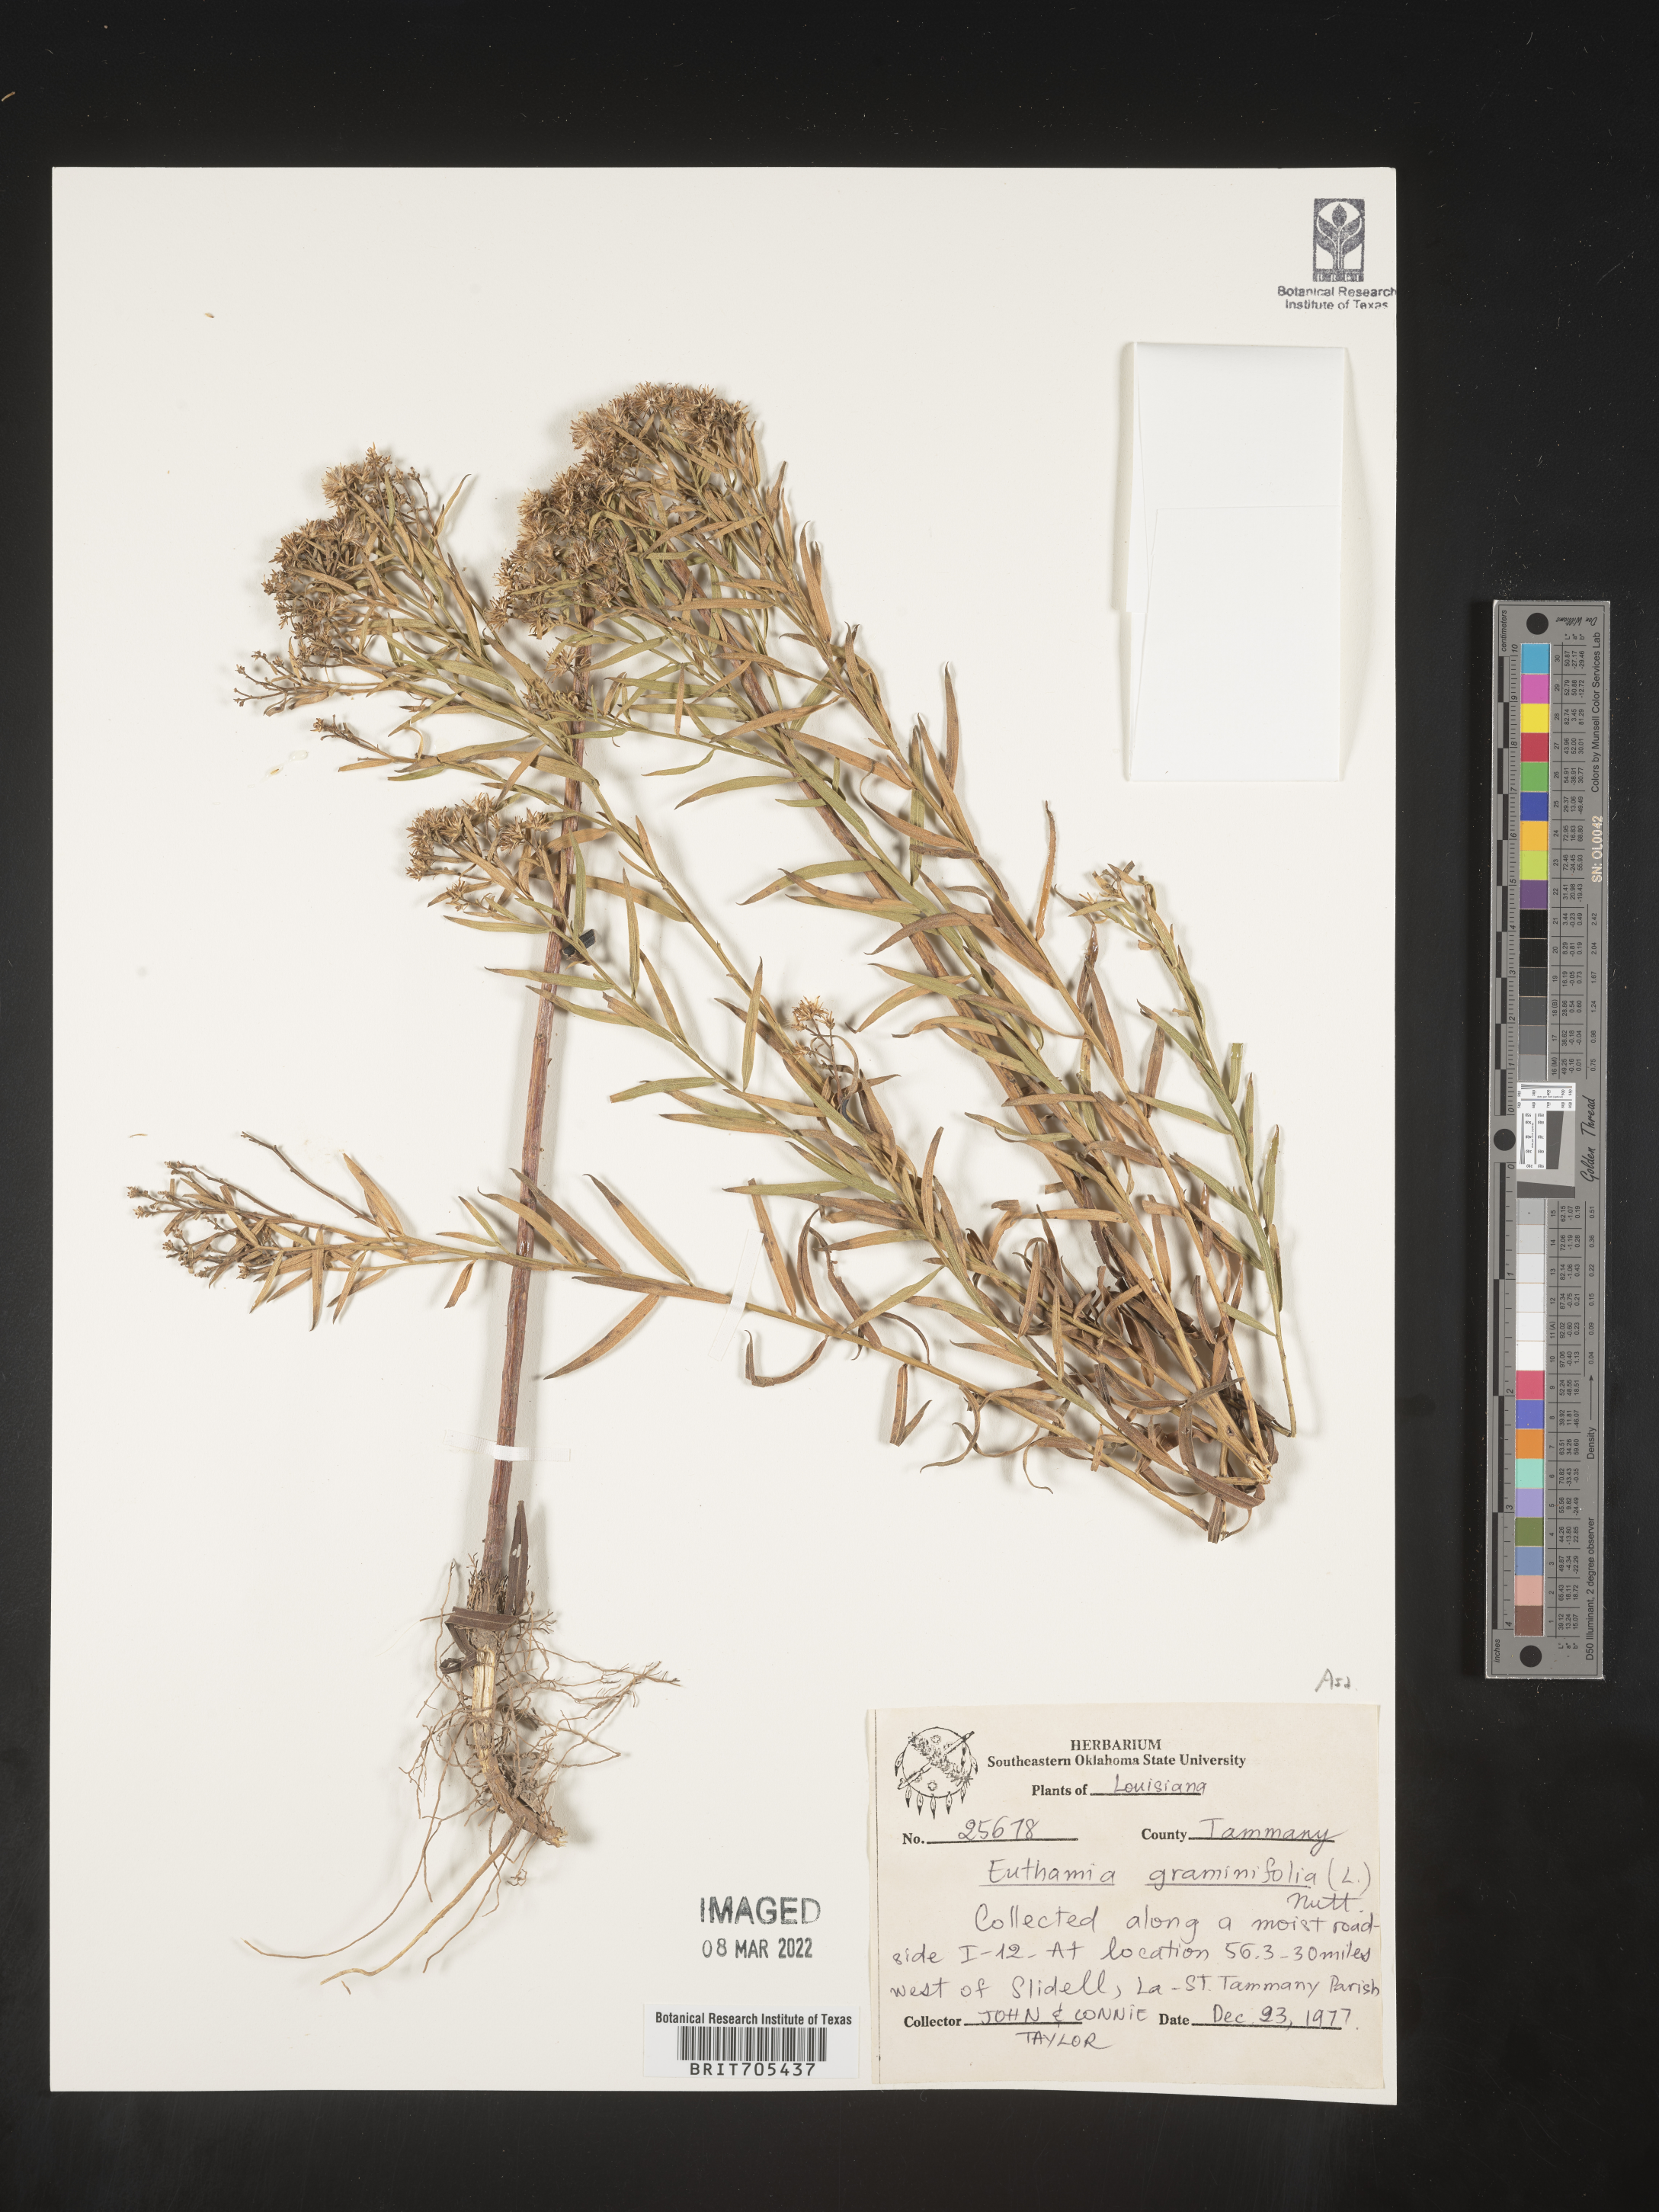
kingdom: Plantae
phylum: Tracheophyta
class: Magnoliopsida
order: Asterales
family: Asteraceae
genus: Euthamia
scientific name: Euthamia
